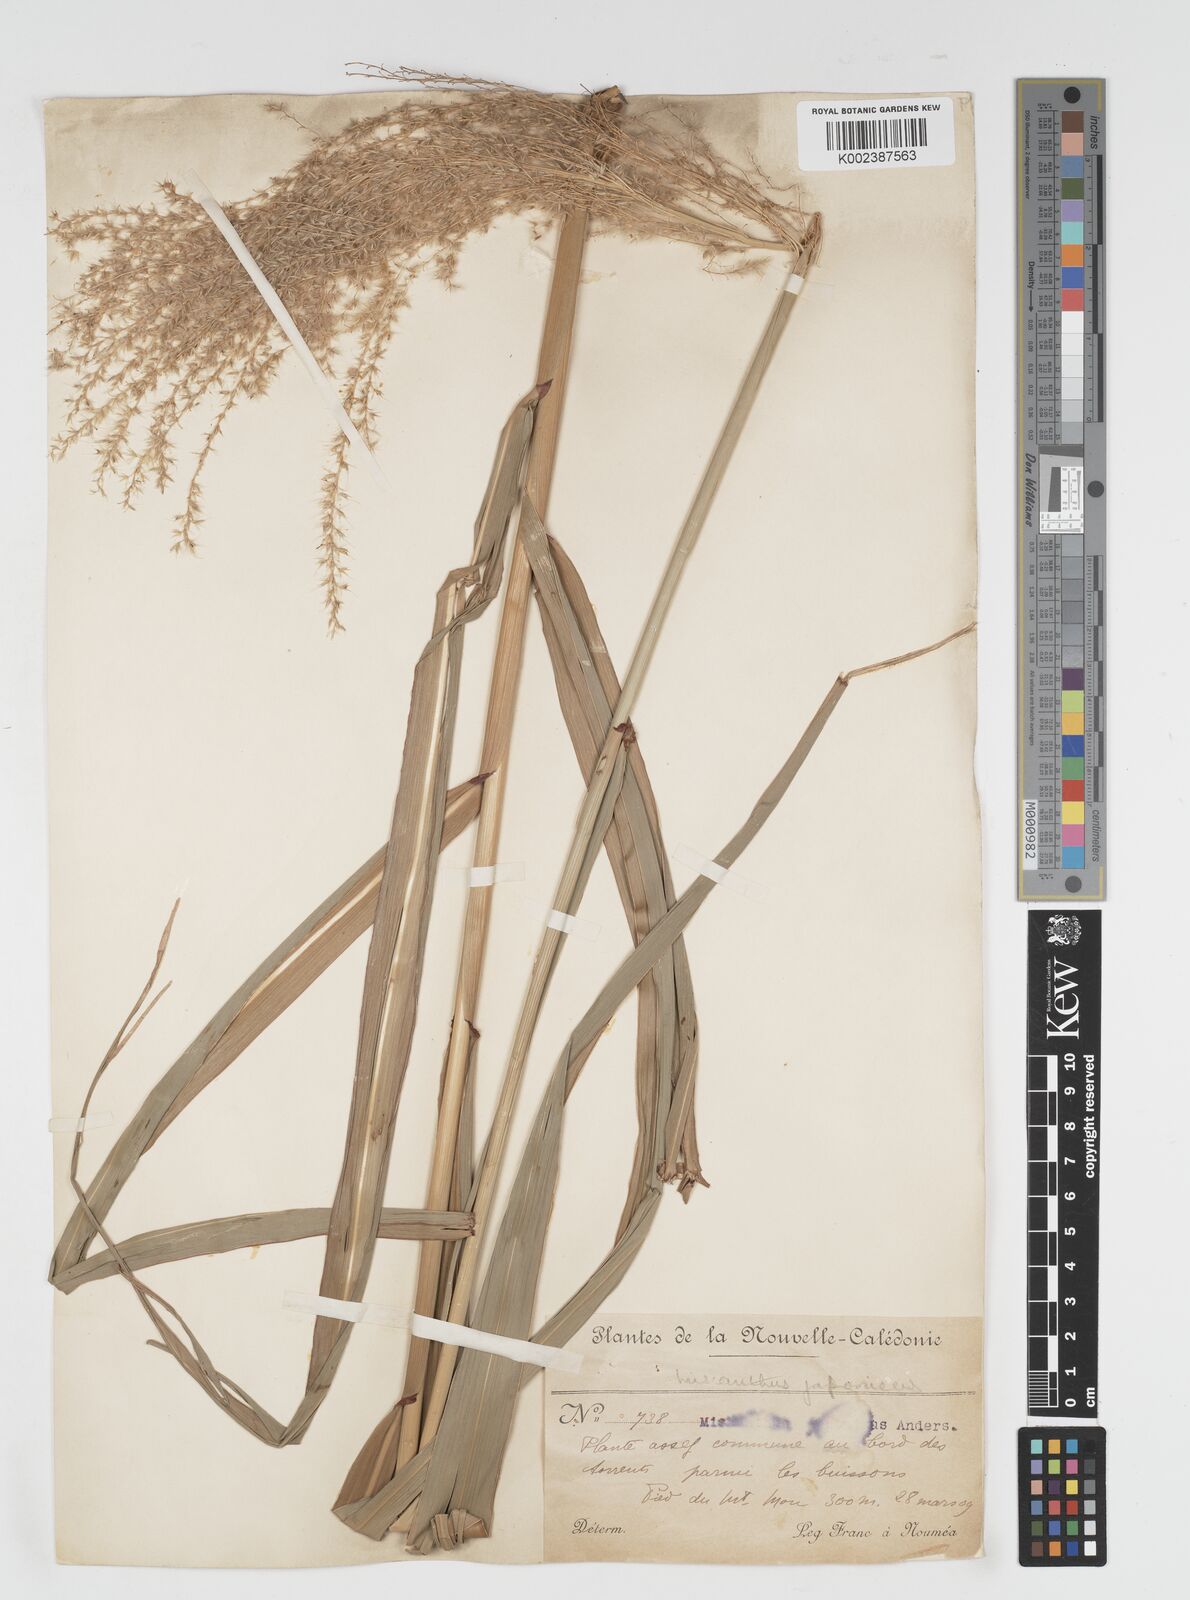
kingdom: Plantae
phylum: Tracheophyta
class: Liliopsida
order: Poales
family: Poaceae
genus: Miscanthus
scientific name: Miscanthus floridulus
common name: Pacific island silvergrass
